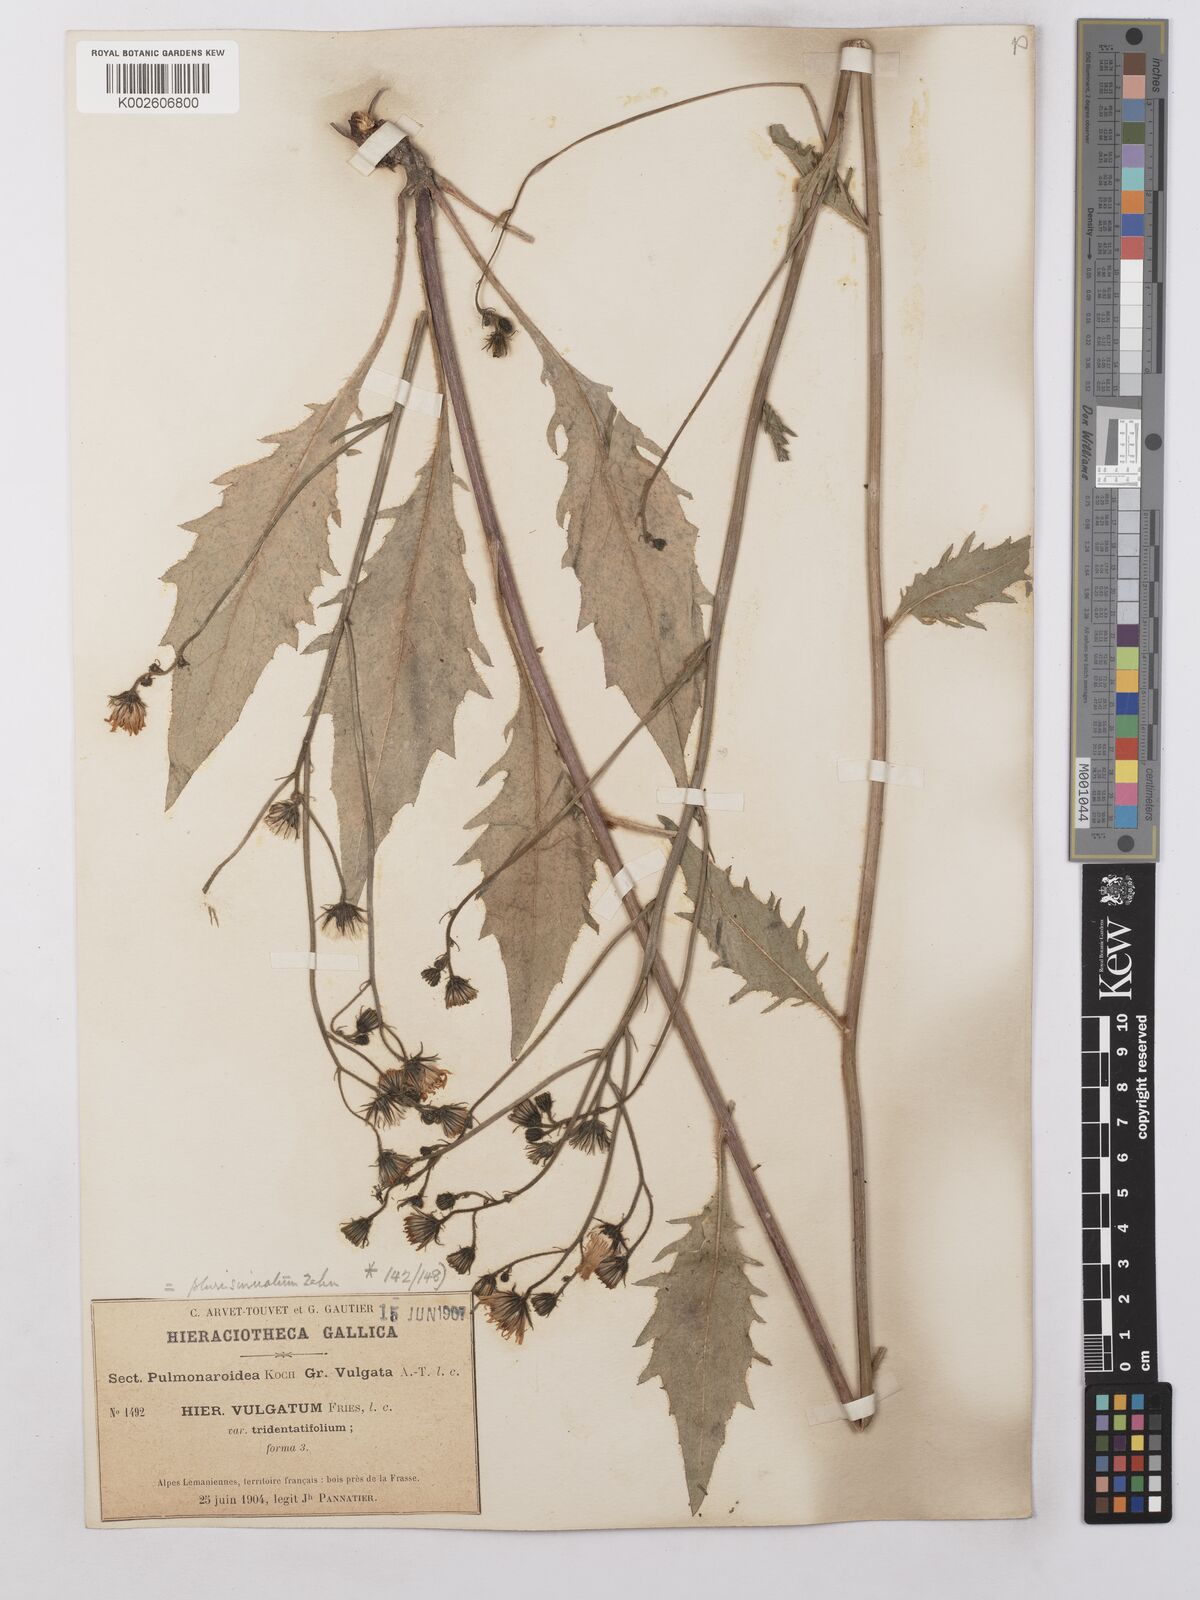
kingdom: Plantae
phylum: Tracheophyta
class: Magnoliopsida
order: Asterales
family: Asteraceae
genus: Hieracium
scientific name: Hieracium lachenalii
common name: Common hawkweed
